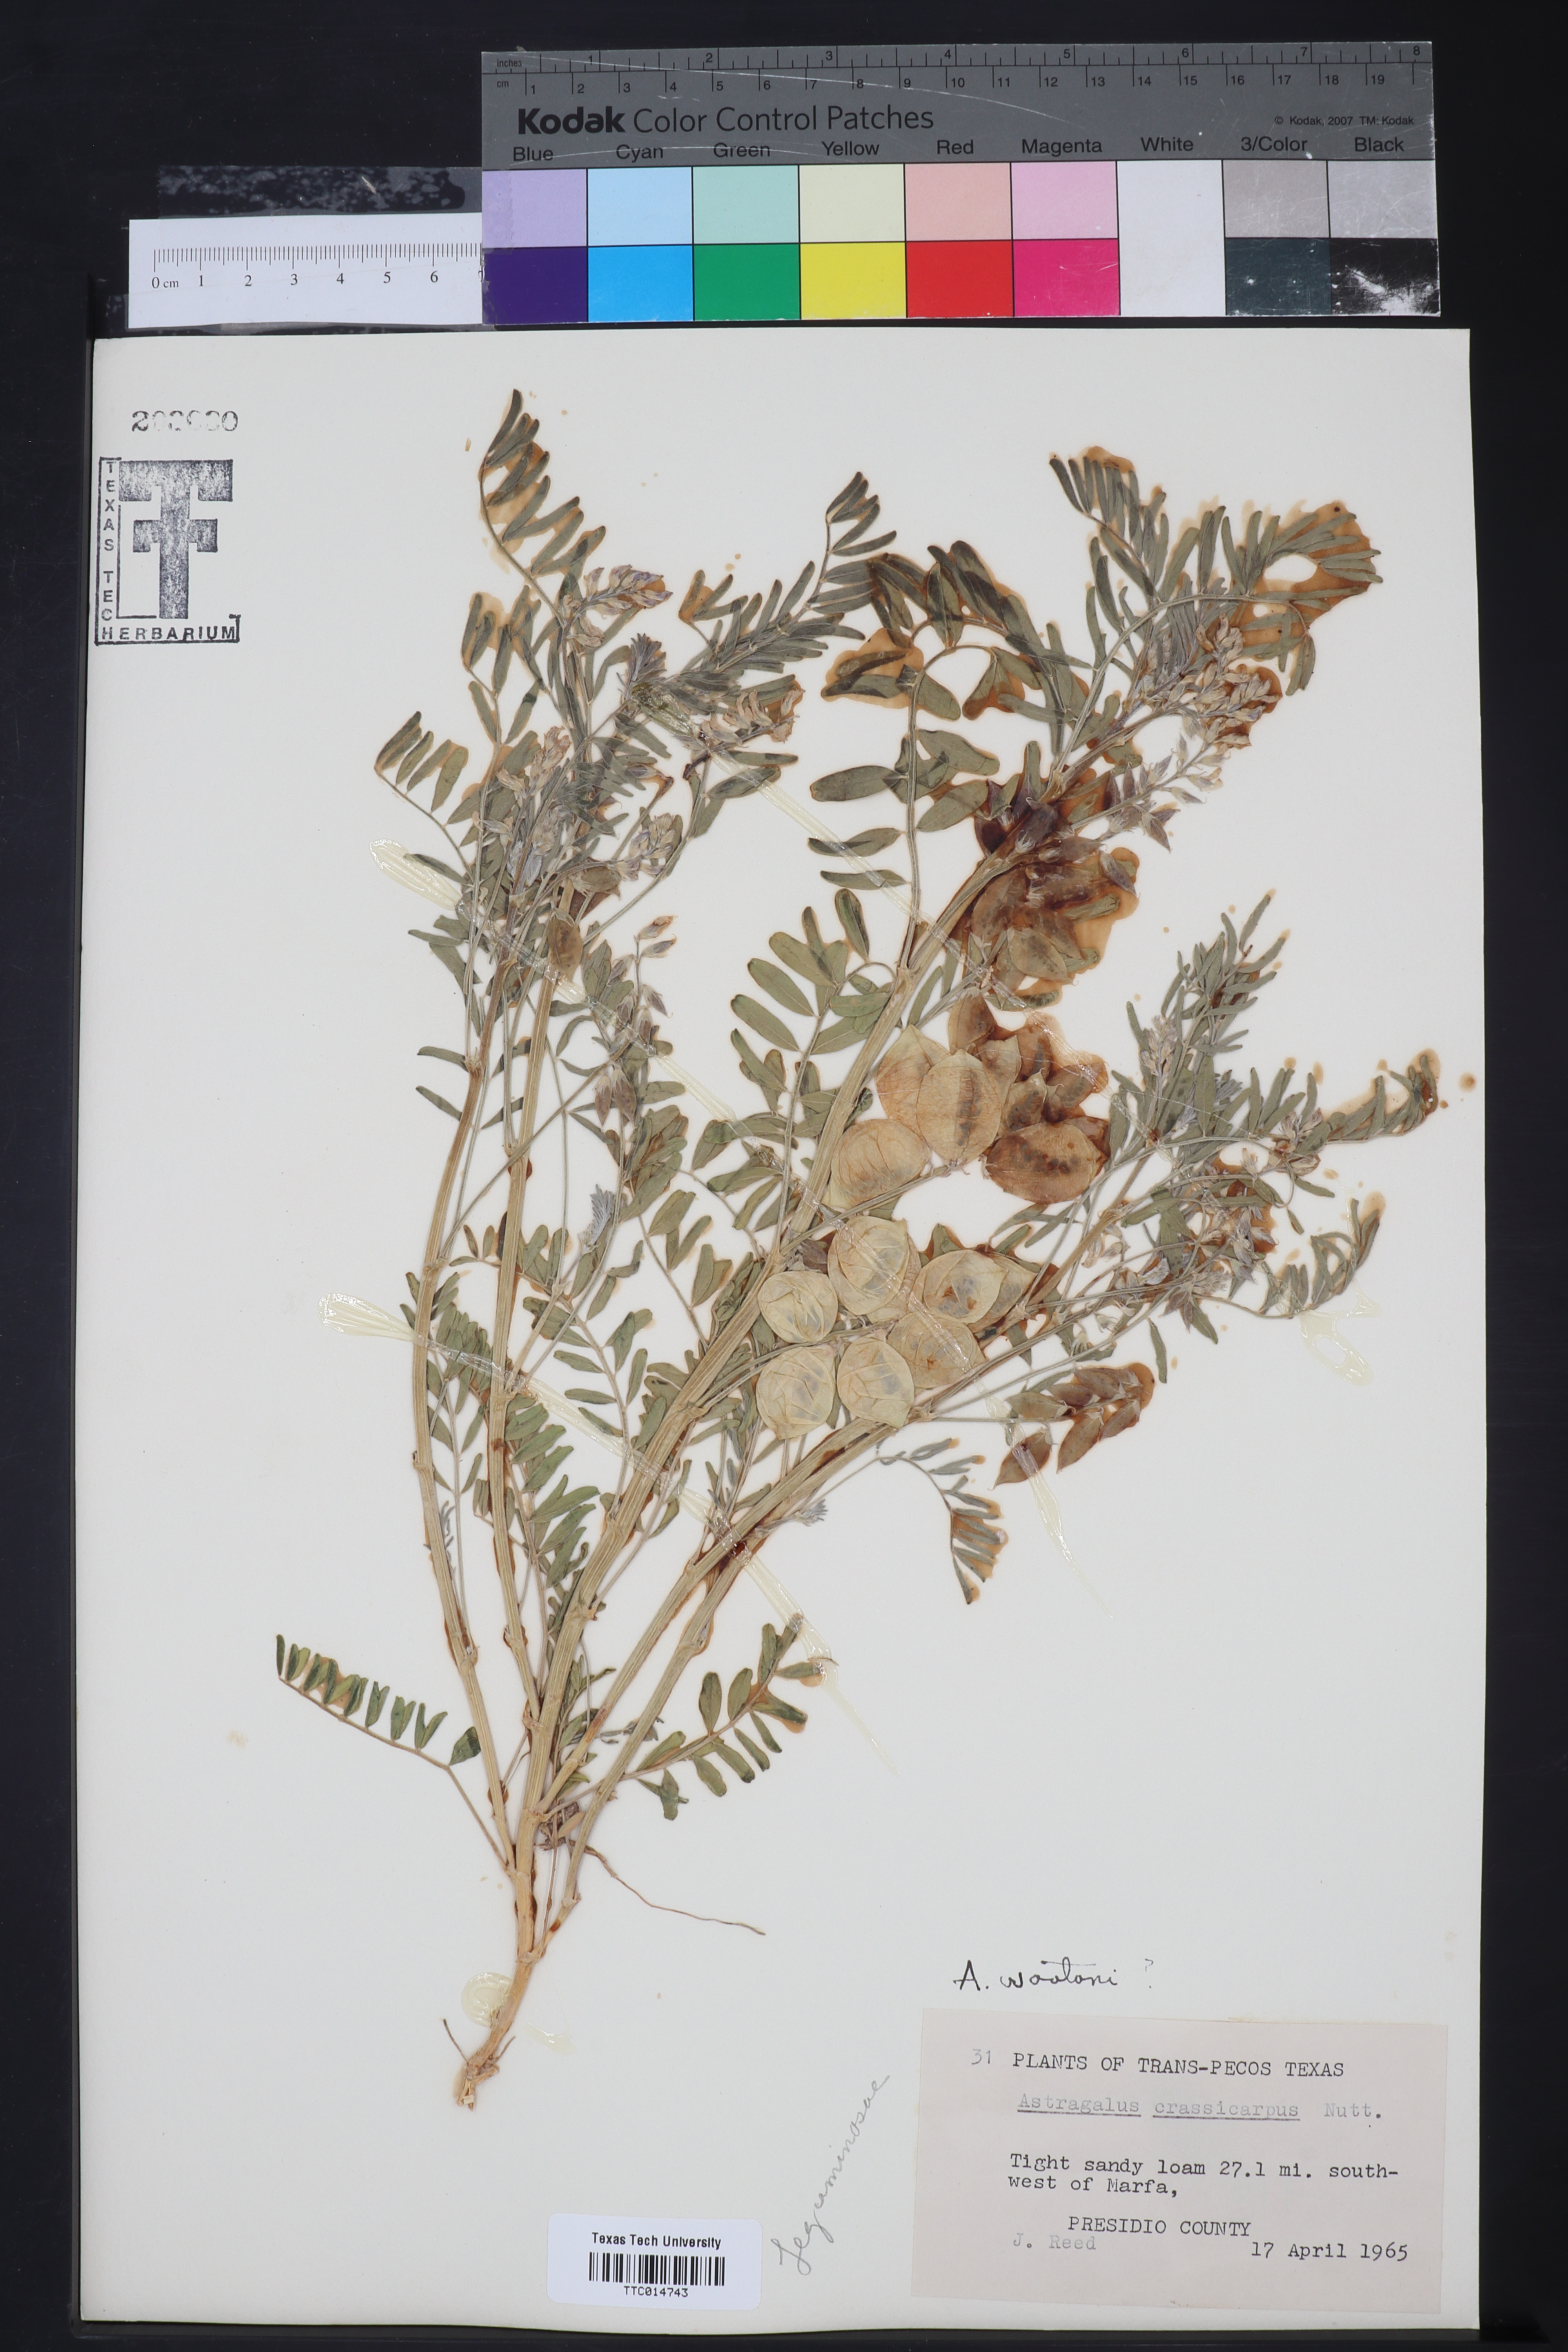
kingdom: Plantae
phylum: Tracheophyta
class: Magnoliopsida
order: Fabales
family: Fabaceae
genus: Astragalus
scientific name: Astragalus wootonii
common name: Wooton's milk-vetch
